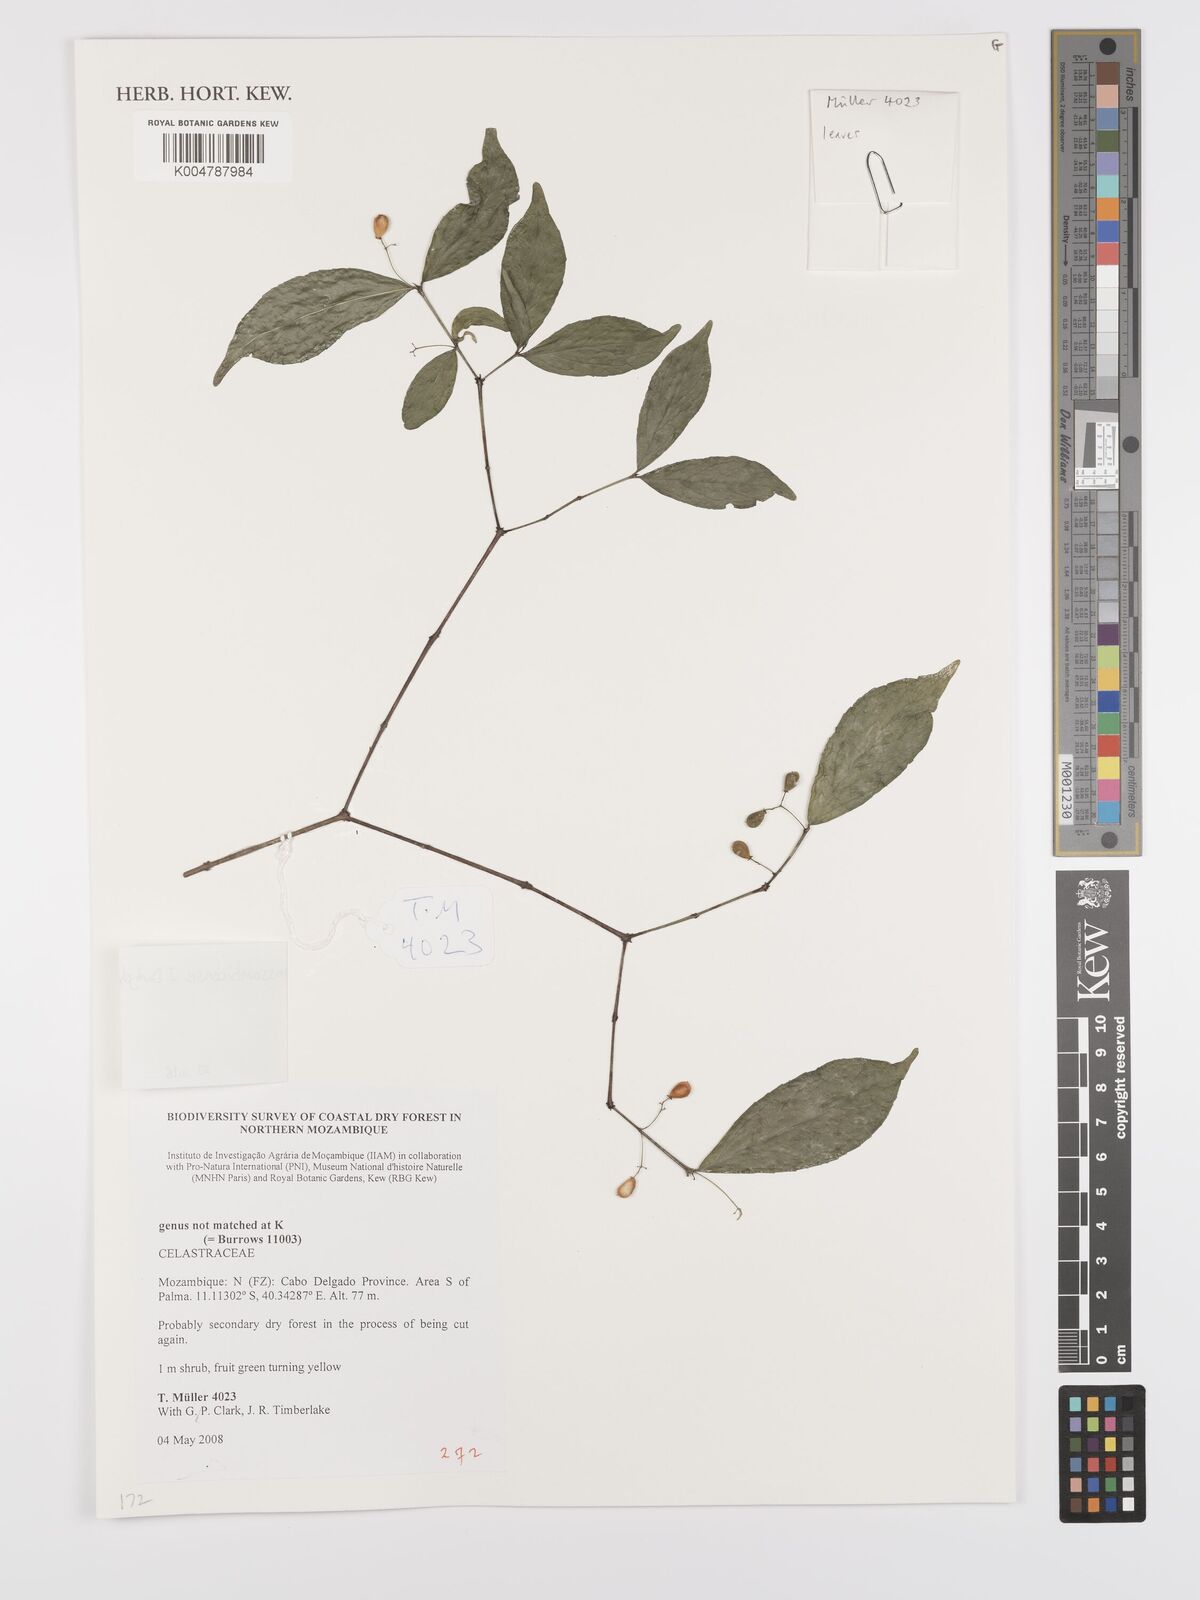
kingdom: Plantae
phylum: Tracheophyta
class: Magnoliopsida
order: Celastrales
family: Celastraceae
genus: Crossopetalum
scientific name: Crossopetalum mossambicense
